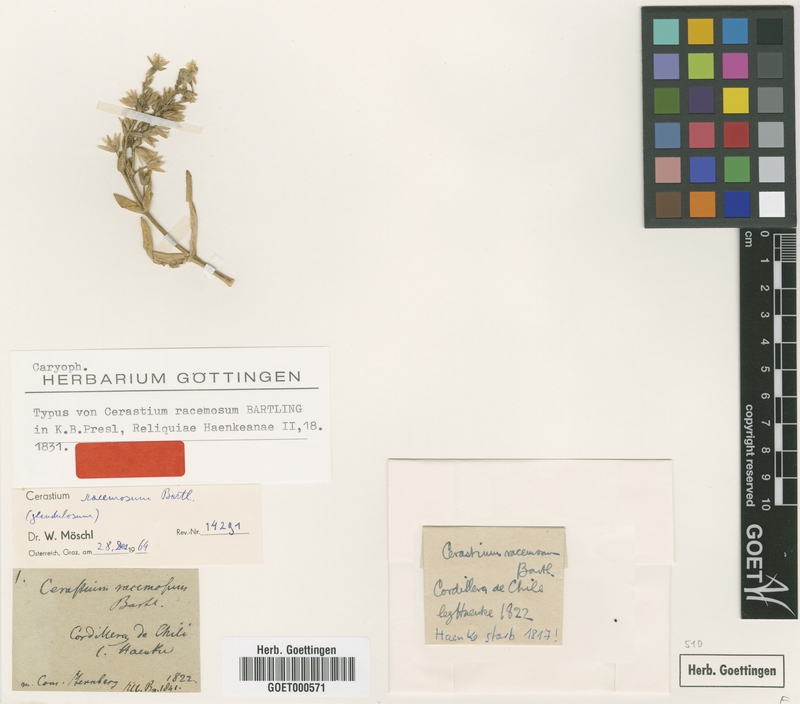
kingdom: Plantae
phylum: Tracheophyta
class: Magnoliopsida
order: Caryophyllales
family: Caryophyllaceae
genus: Cerastium
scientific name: Cerastium racemosum
